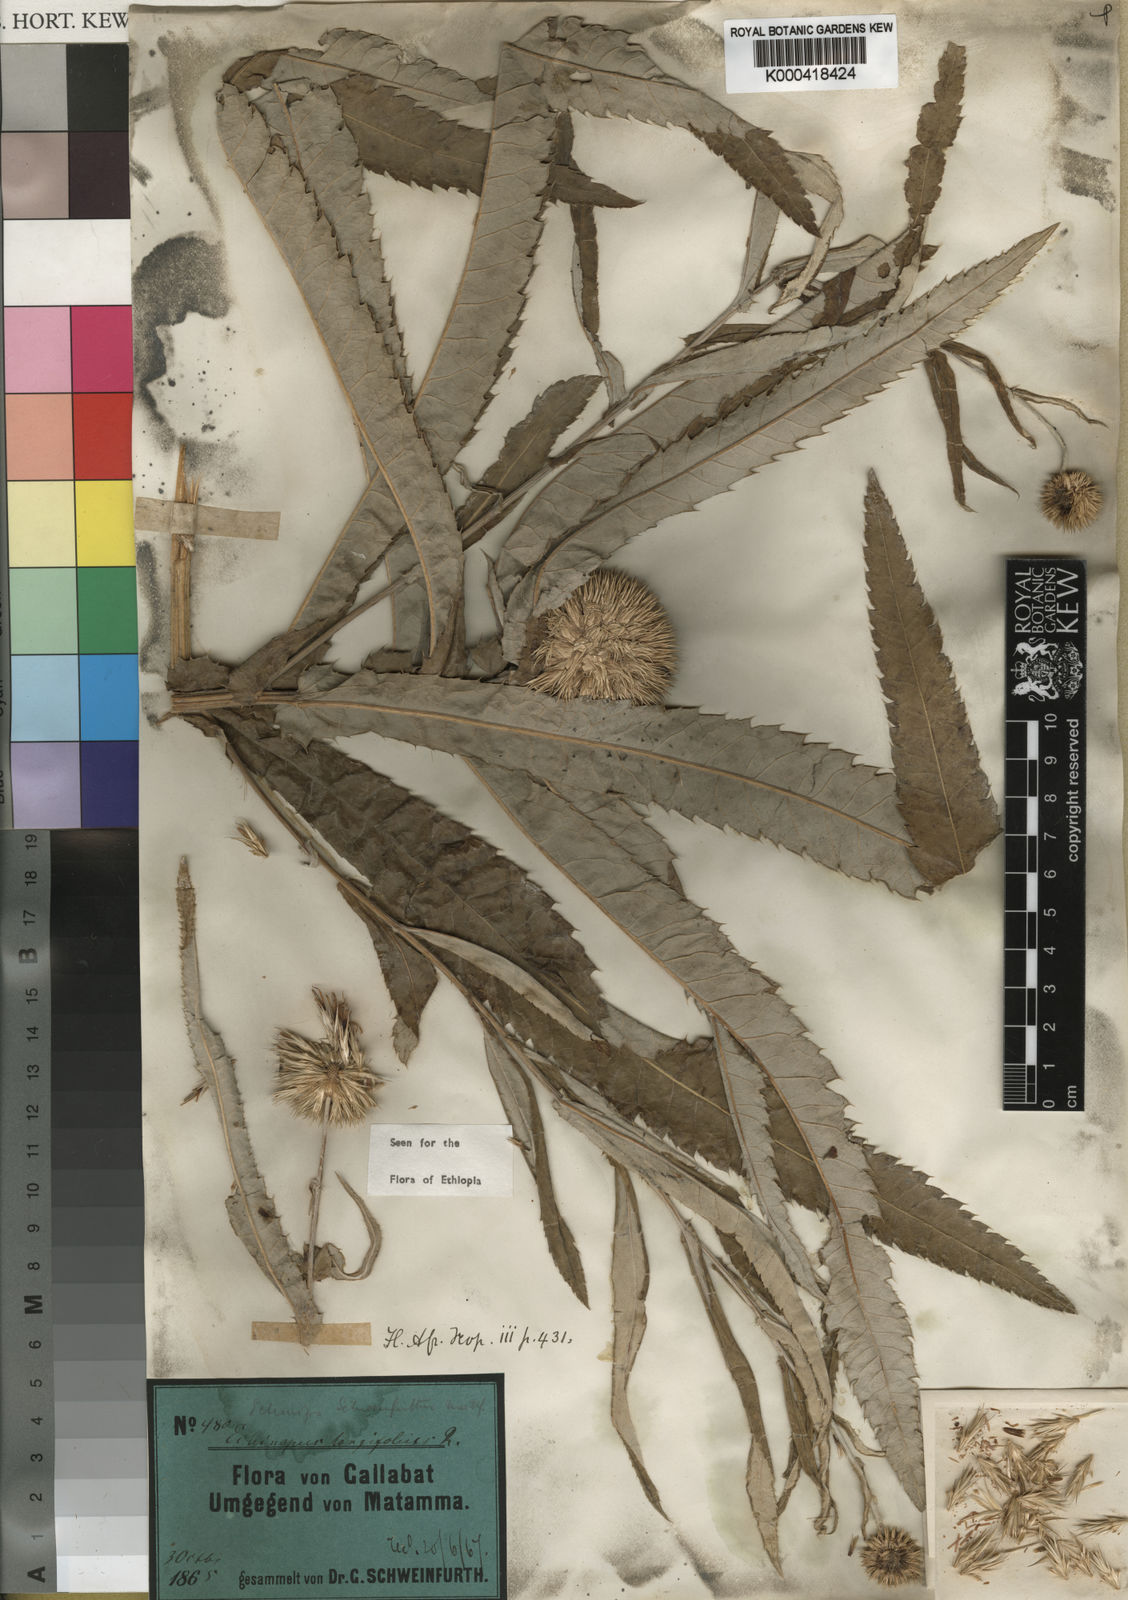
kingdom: Plantae
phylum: Tracheophyta
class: Magnoliopsida
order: Asterales
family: Asteraceae
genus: Echinops
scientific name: Echinops longifolius
